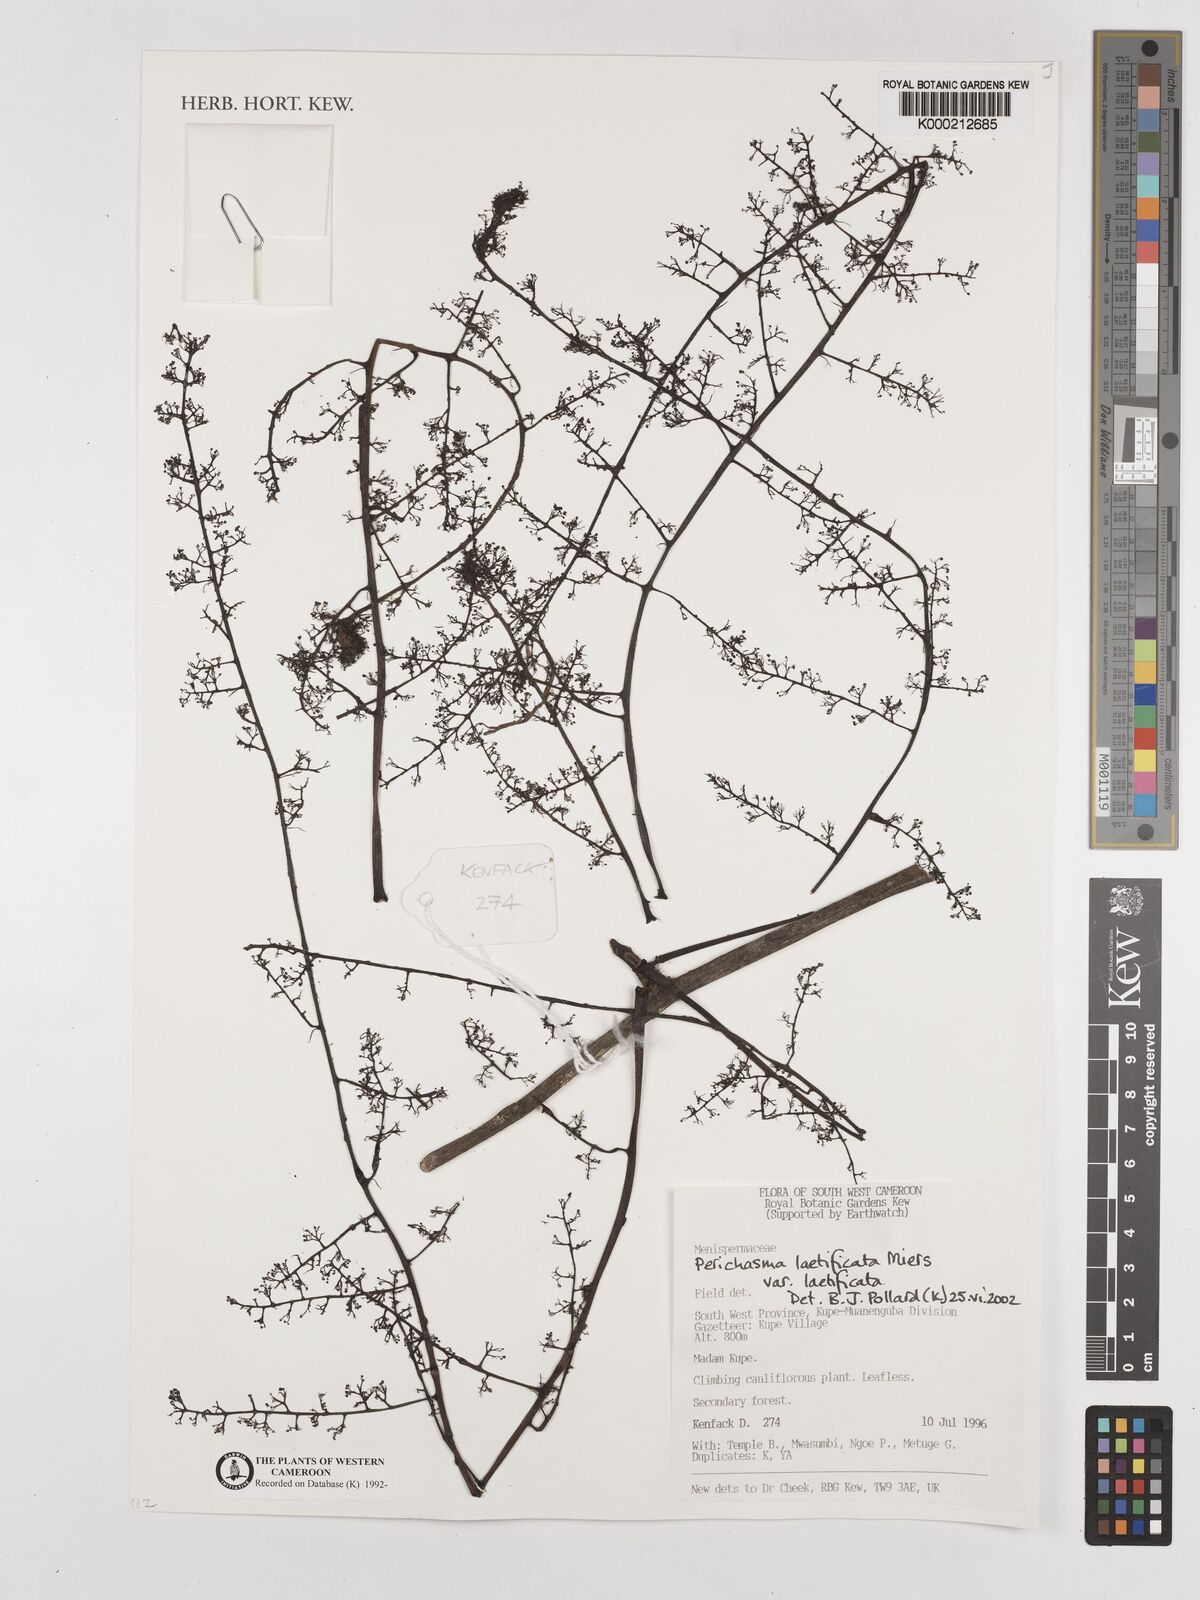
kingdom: Plantae
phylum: Tracheophyta
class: Magnoliopsida
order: Ranunculales
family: Menispermaceae
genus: Perichasma
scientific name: Perichasma laetificata
